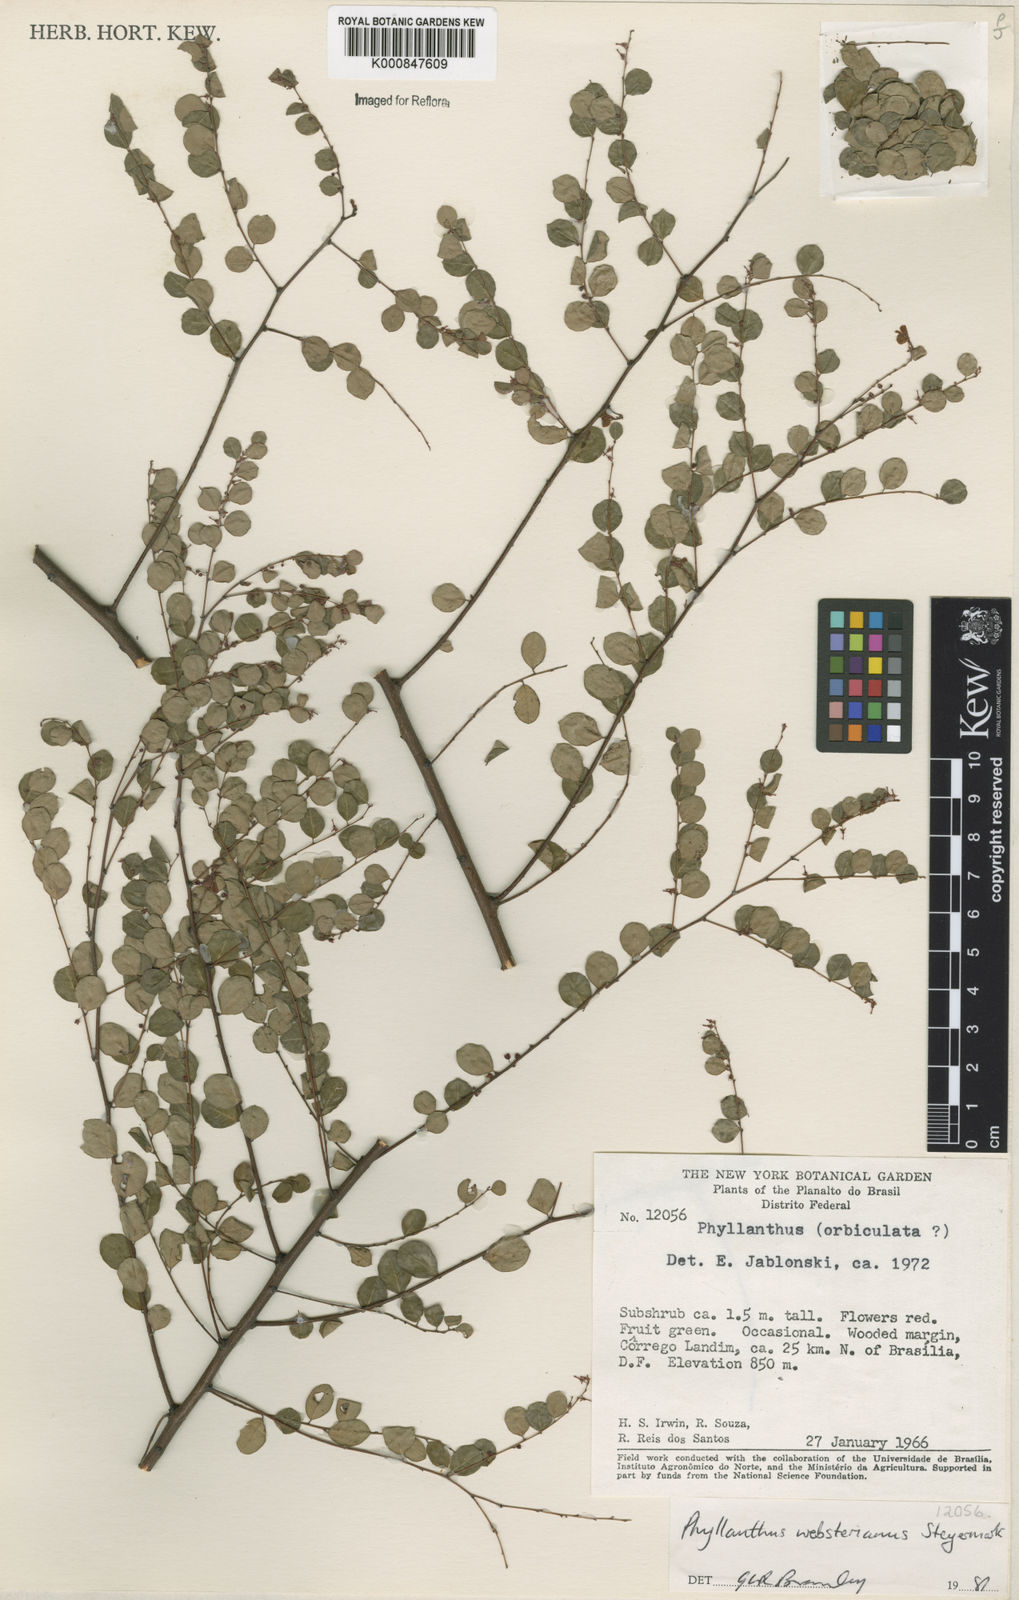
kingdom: Plantae
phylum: Tracheophyta
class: Magnoliopsida
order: Malpighiales
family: Phyllanthaceae
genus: Phyllanthus
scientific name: Phyllanthus websterianus
